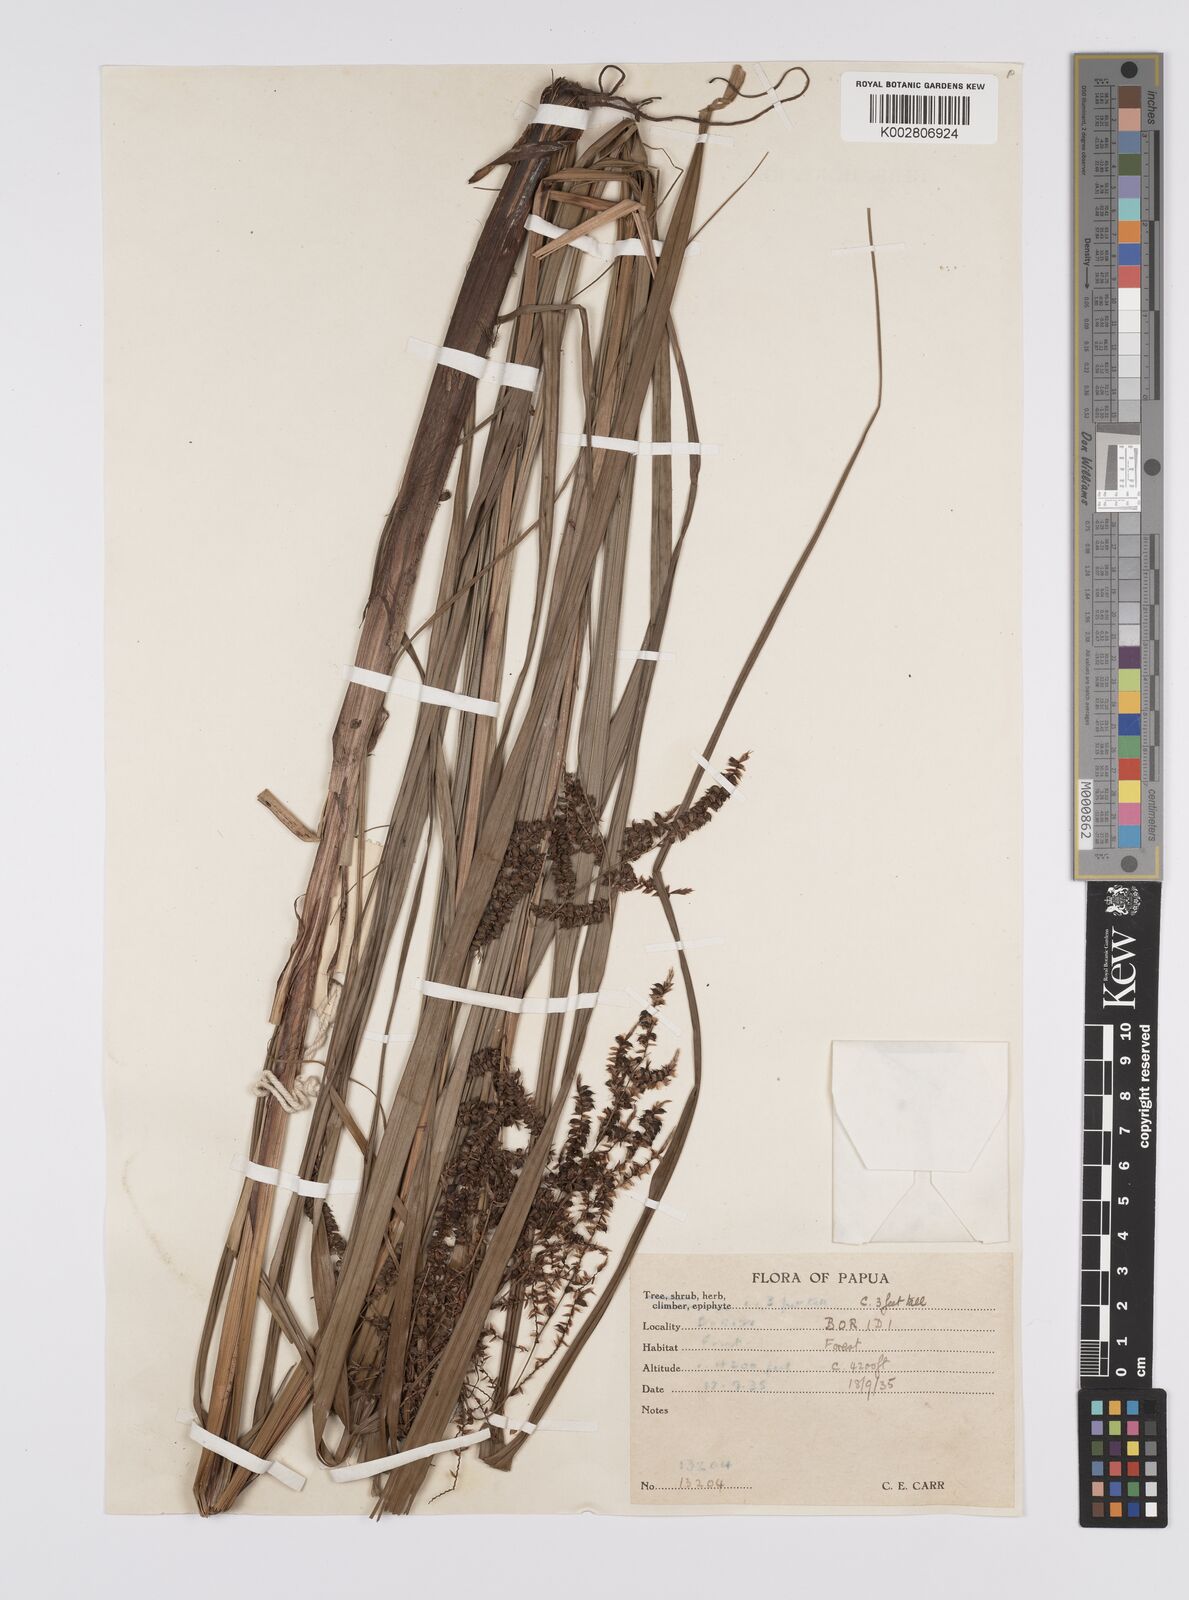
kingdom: Plantae
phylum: Tracheophyta
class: Liliopsida
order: Poales
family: Cyperaceae
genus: Carex
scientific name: Carex baccans
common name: Crimson seeded sedge
